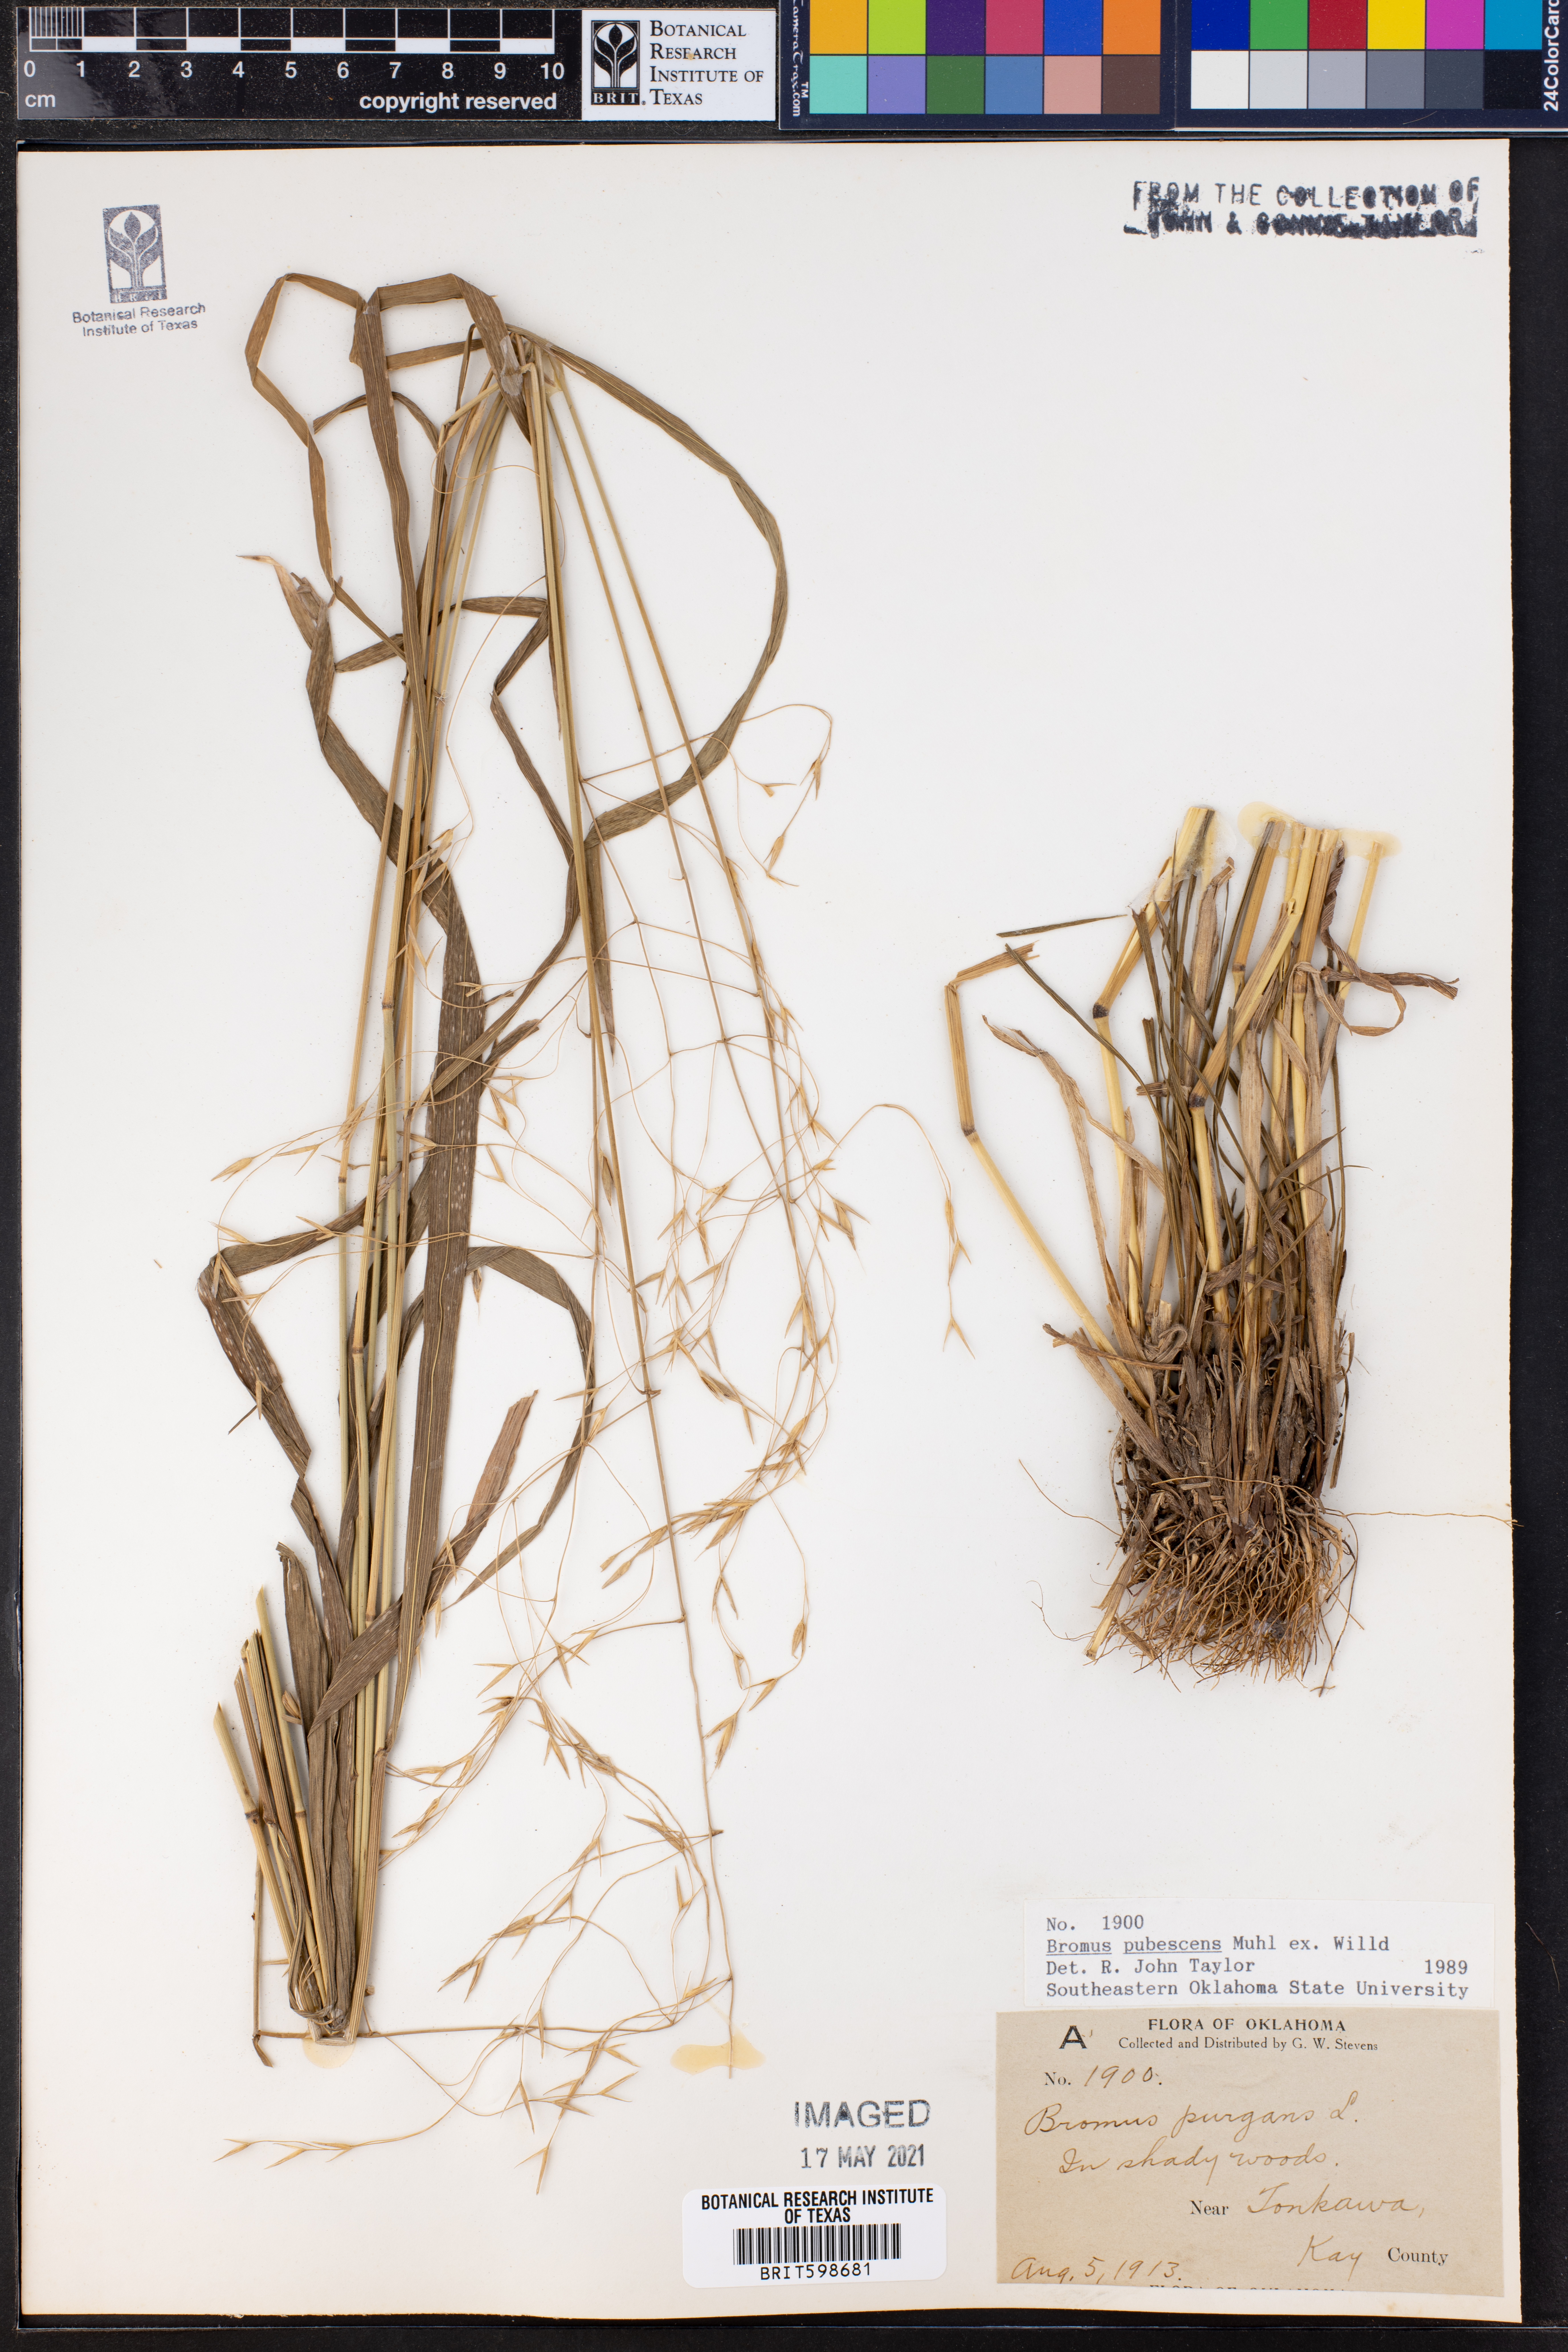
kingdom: Plantae
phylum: Tracheophyta
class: Liliopsida
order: Poales
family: Poaceae
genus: Bromus
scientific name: Bromus pubescens
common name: Hairy wood brome grass
